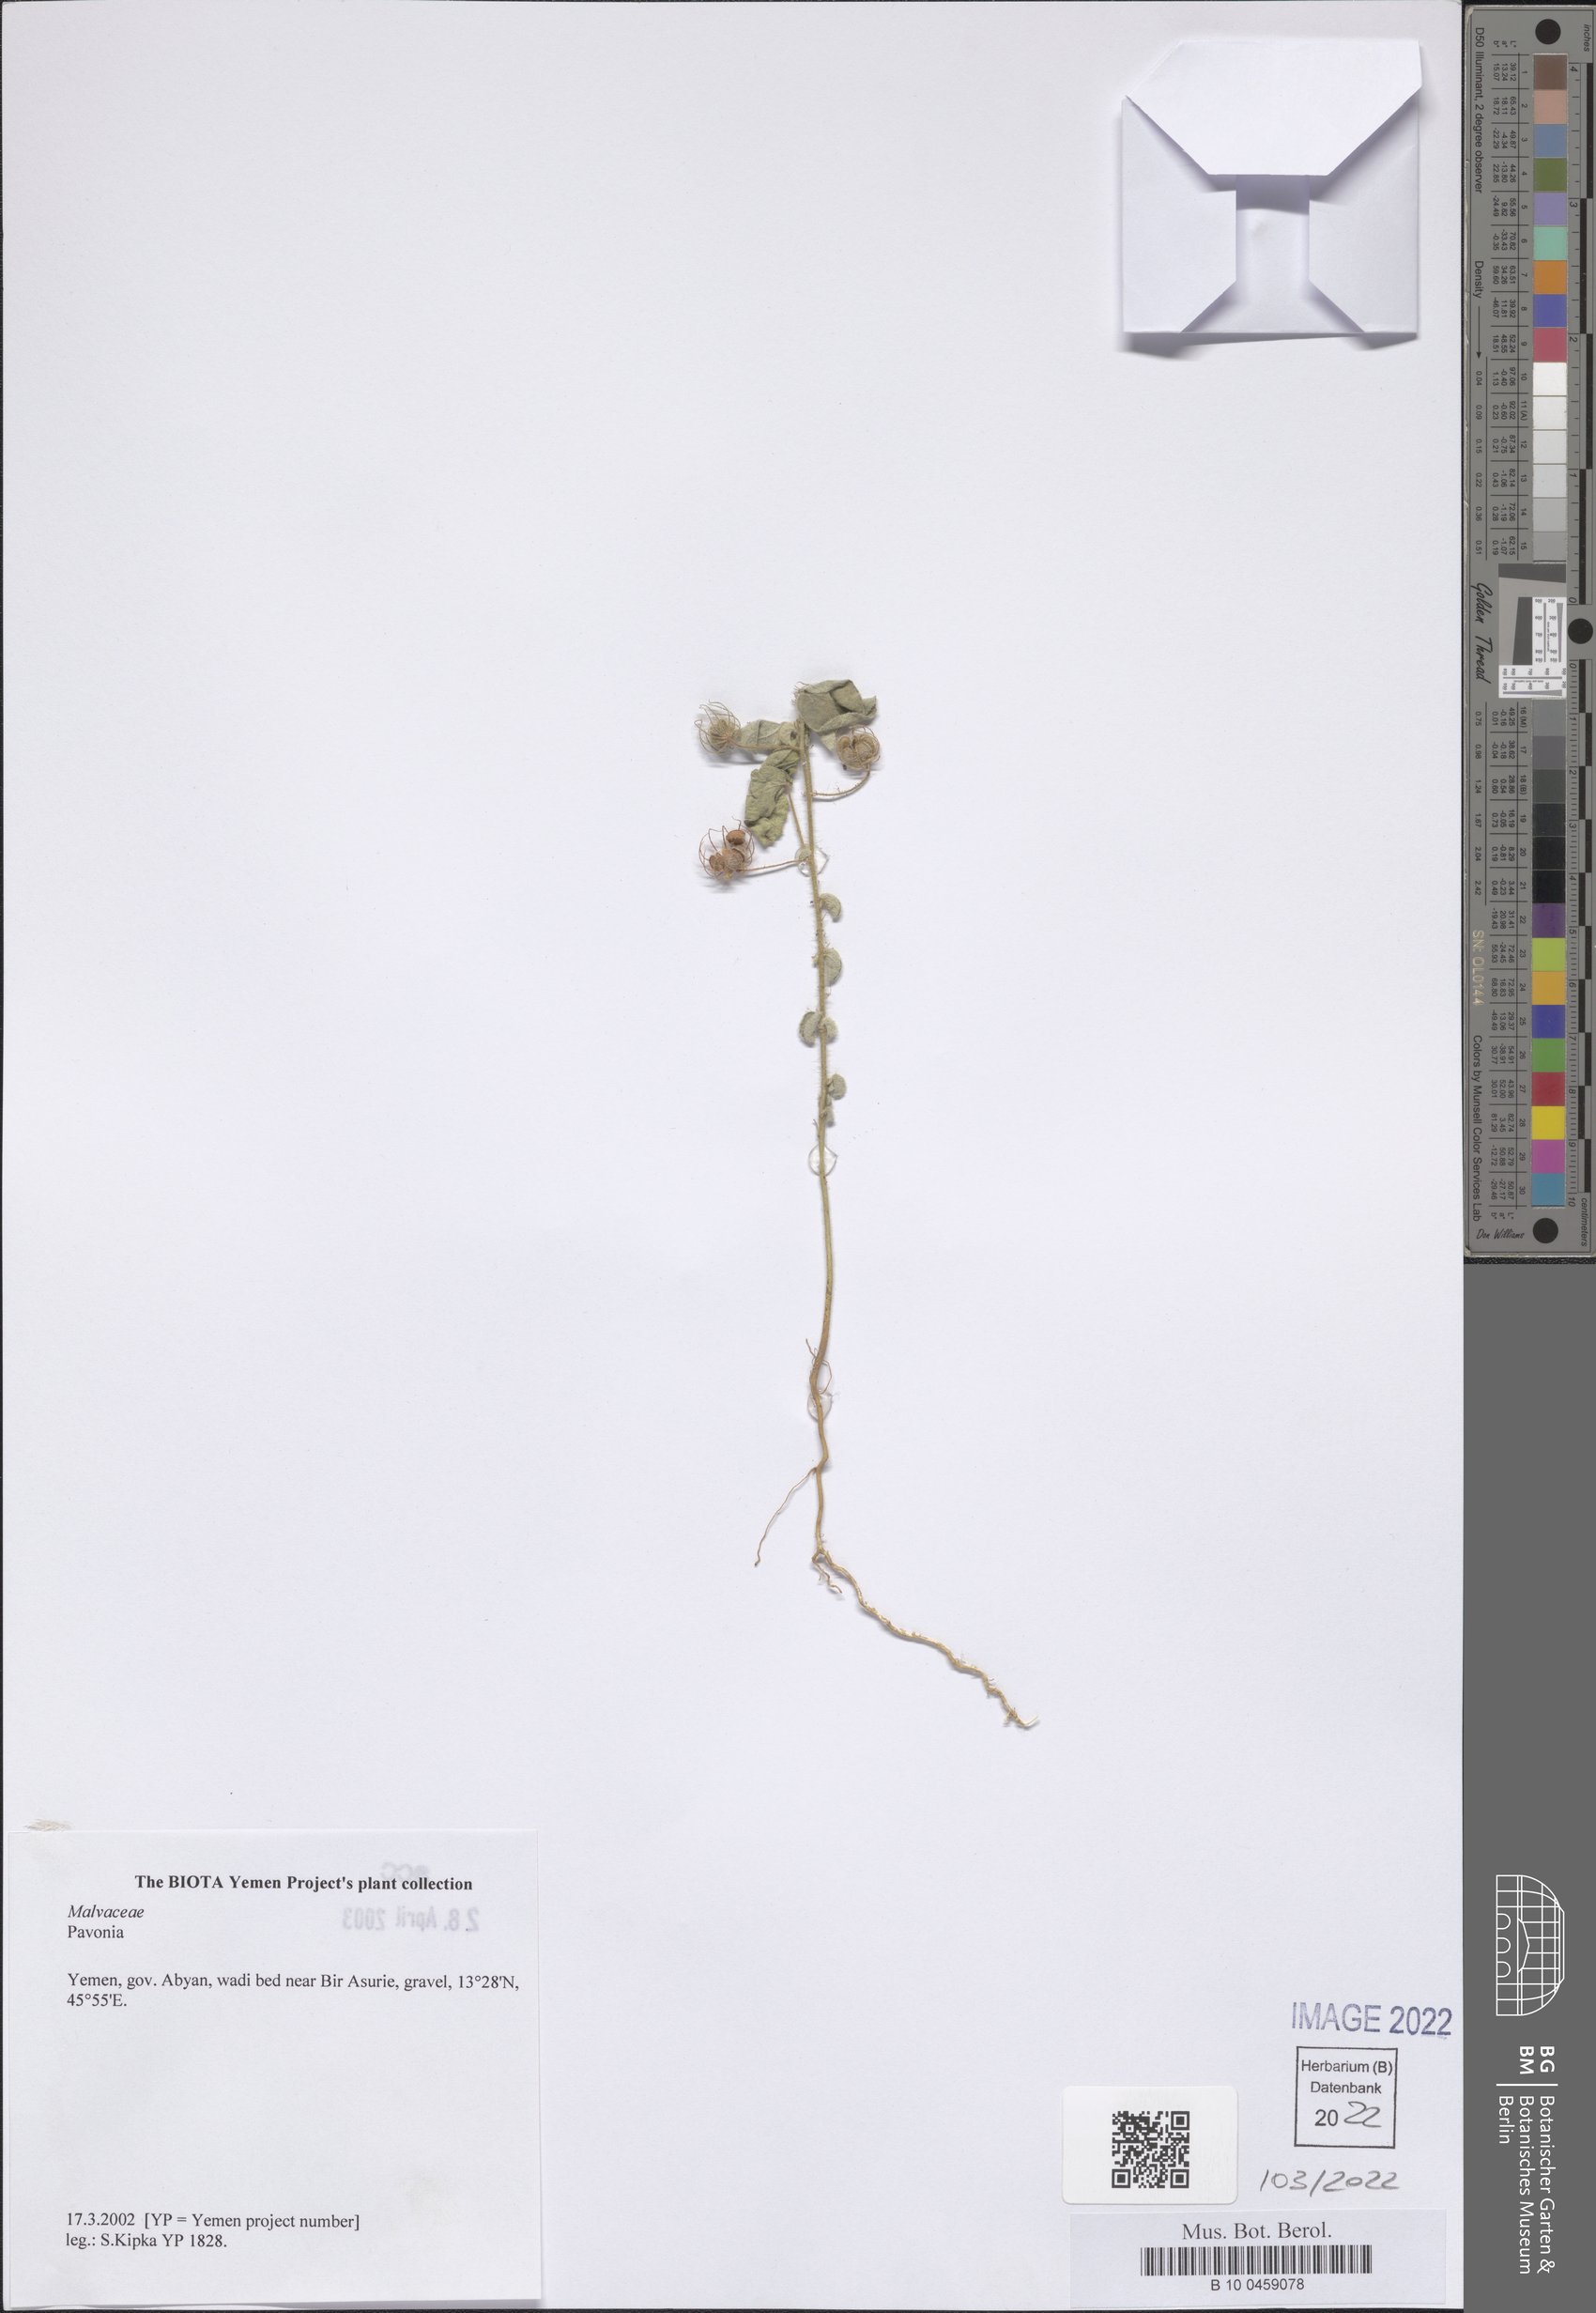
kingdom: Plantae
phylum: Tracheophyta
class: Magnoliopsida
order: Malvales
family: Malvaceae
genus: Pavonia
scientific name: Pavonia
